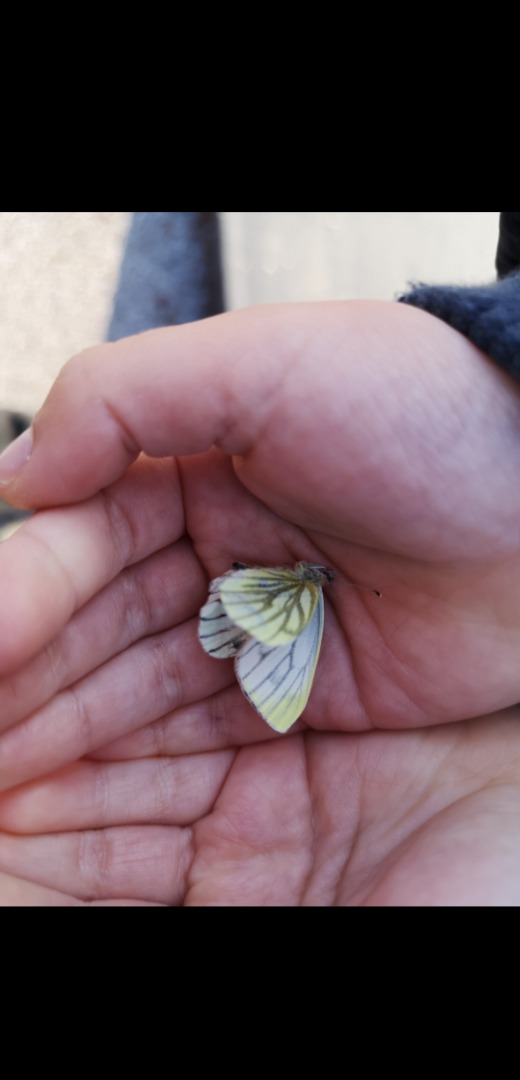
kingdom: Animalia
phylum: Arthropoda
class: Insecta
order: Lepidoptera
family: Pieridae
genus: Pieris
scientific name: Pieris napi
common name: Grønåret kålsommerfugl
